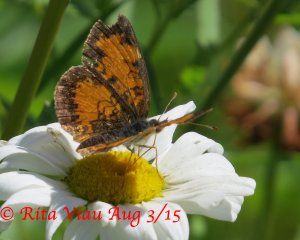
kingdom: Animalia
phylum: Arthropoda
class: Insecta
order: Lepidoptera
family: Nymphalidae
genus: Phyciodes
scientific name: Phyciodes tharos
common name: Northern Crescent
